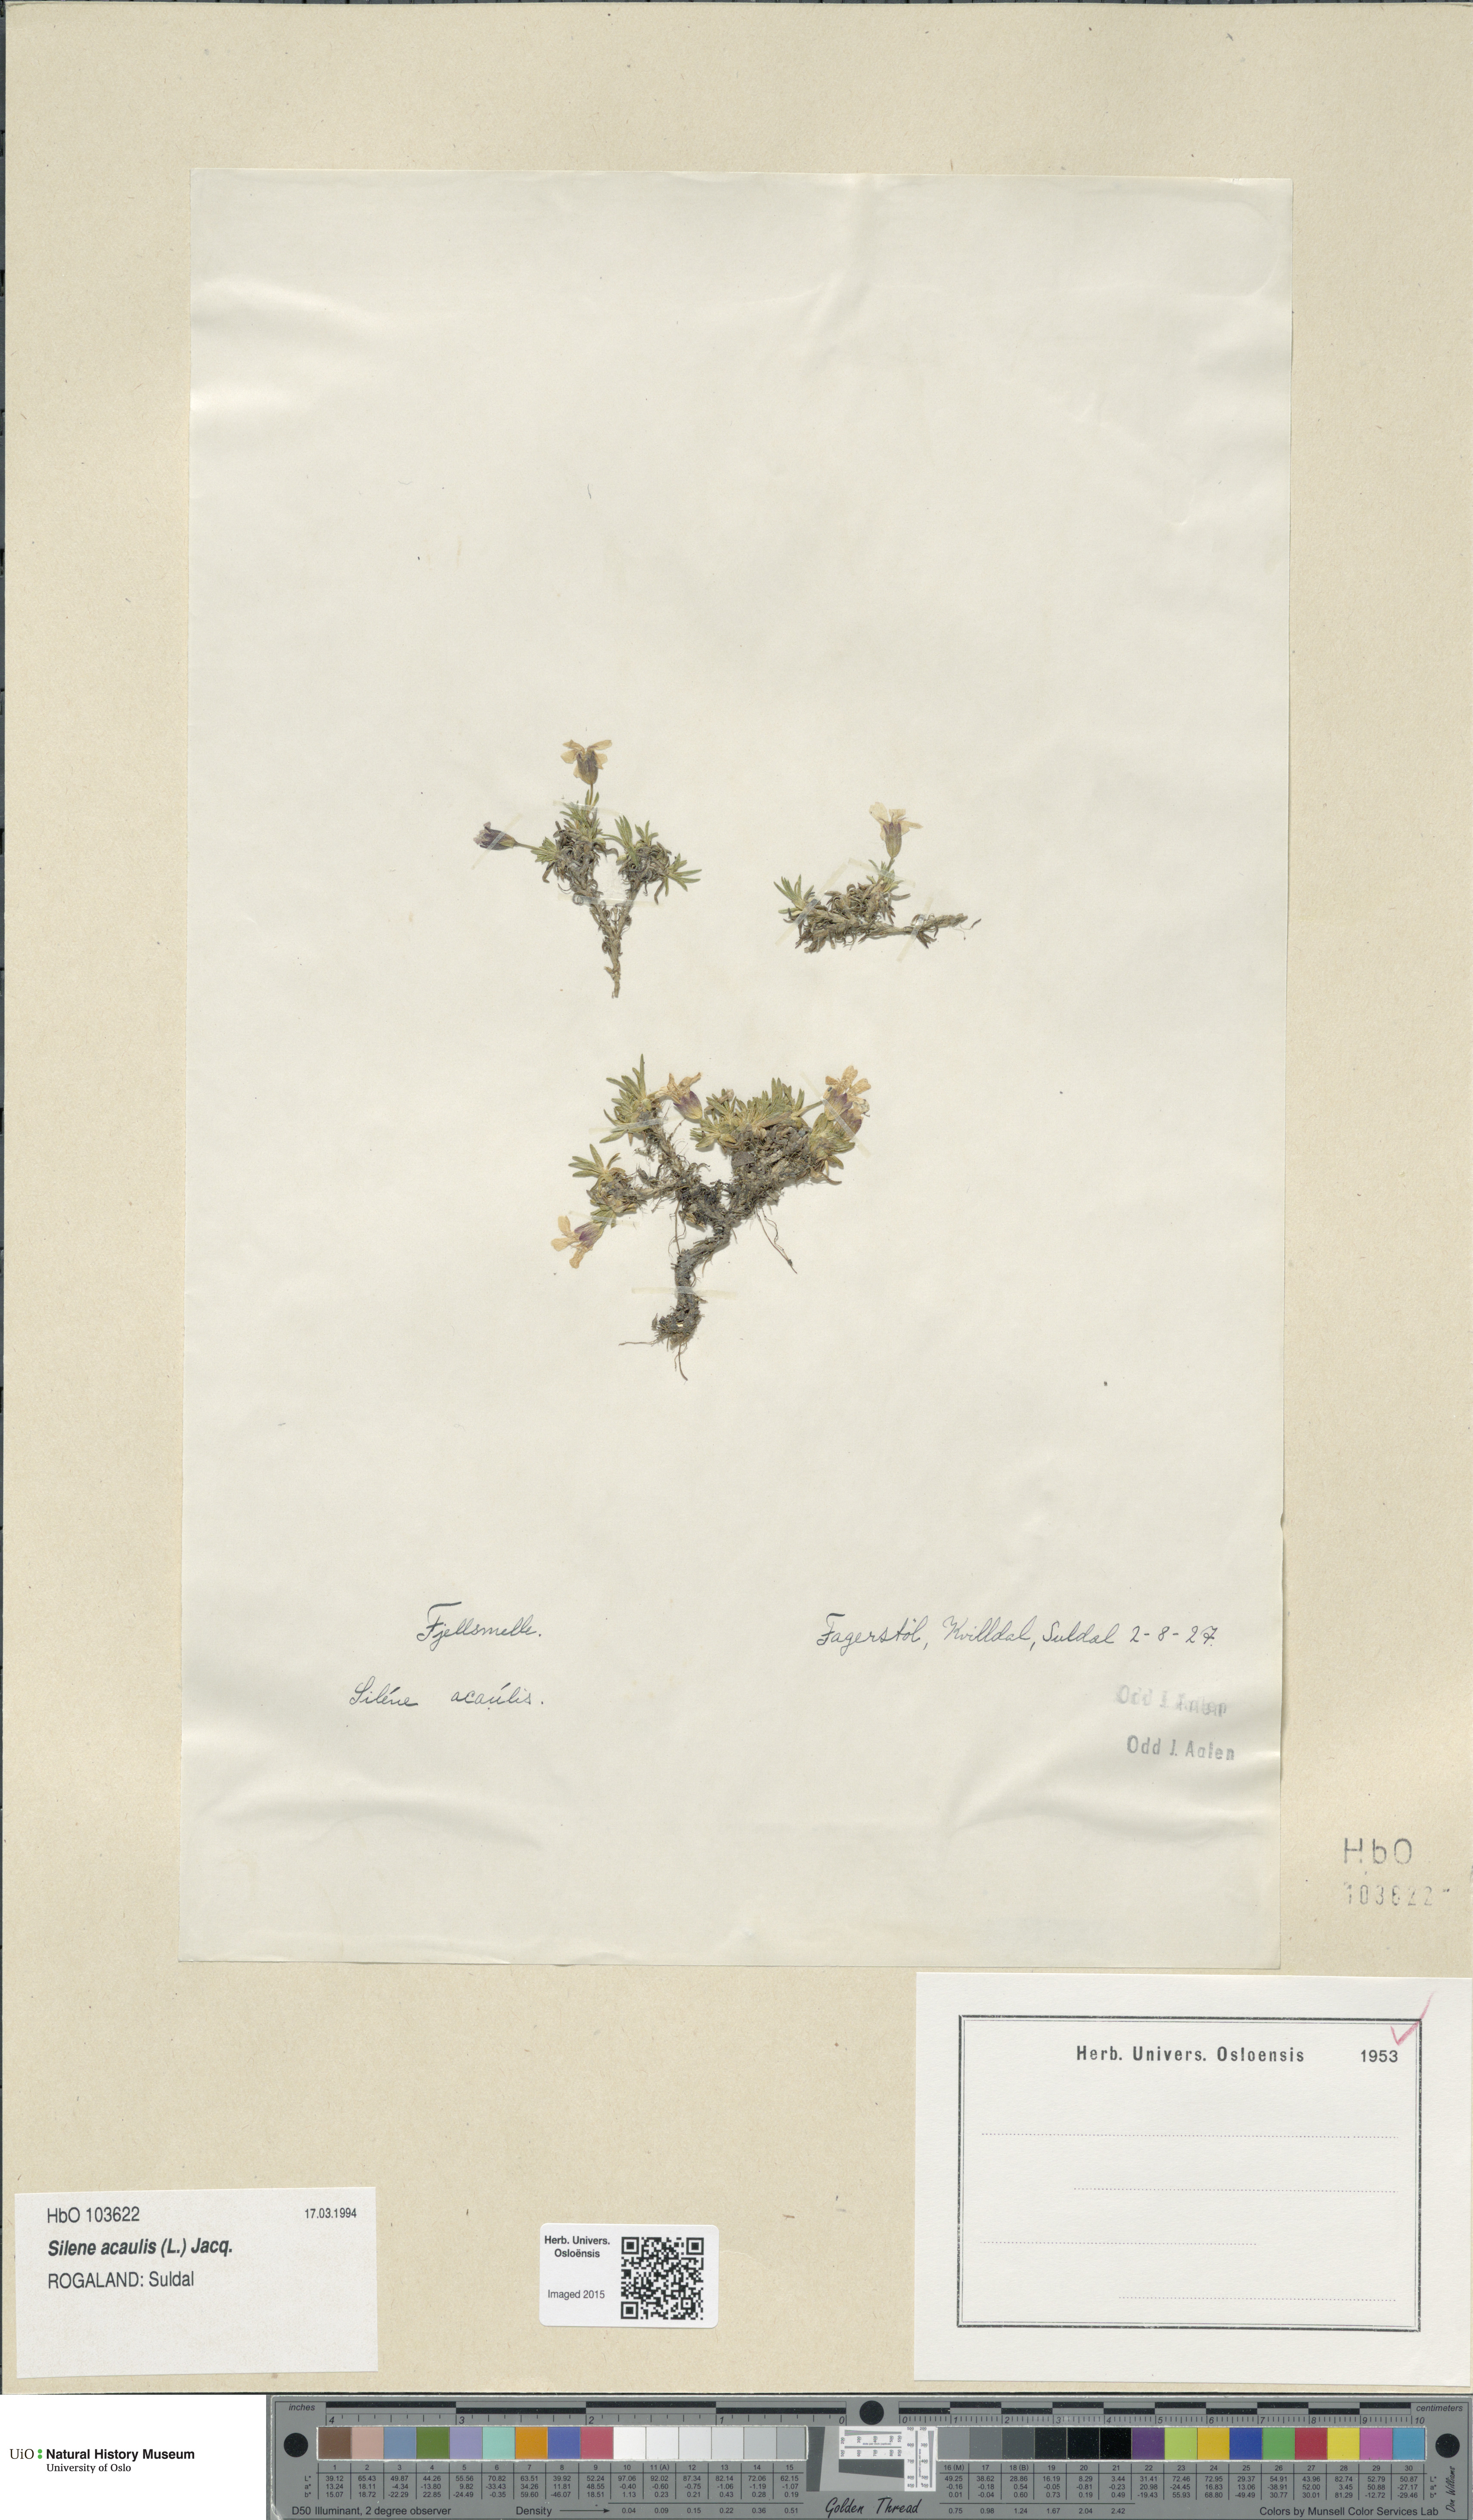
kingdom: Plantae
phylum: Tracheophyta
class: Magnoliopsida
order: Caryophyllales
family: Caryophyllaceae
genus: Silene
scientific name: Silene acaulis
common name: Moss campion
